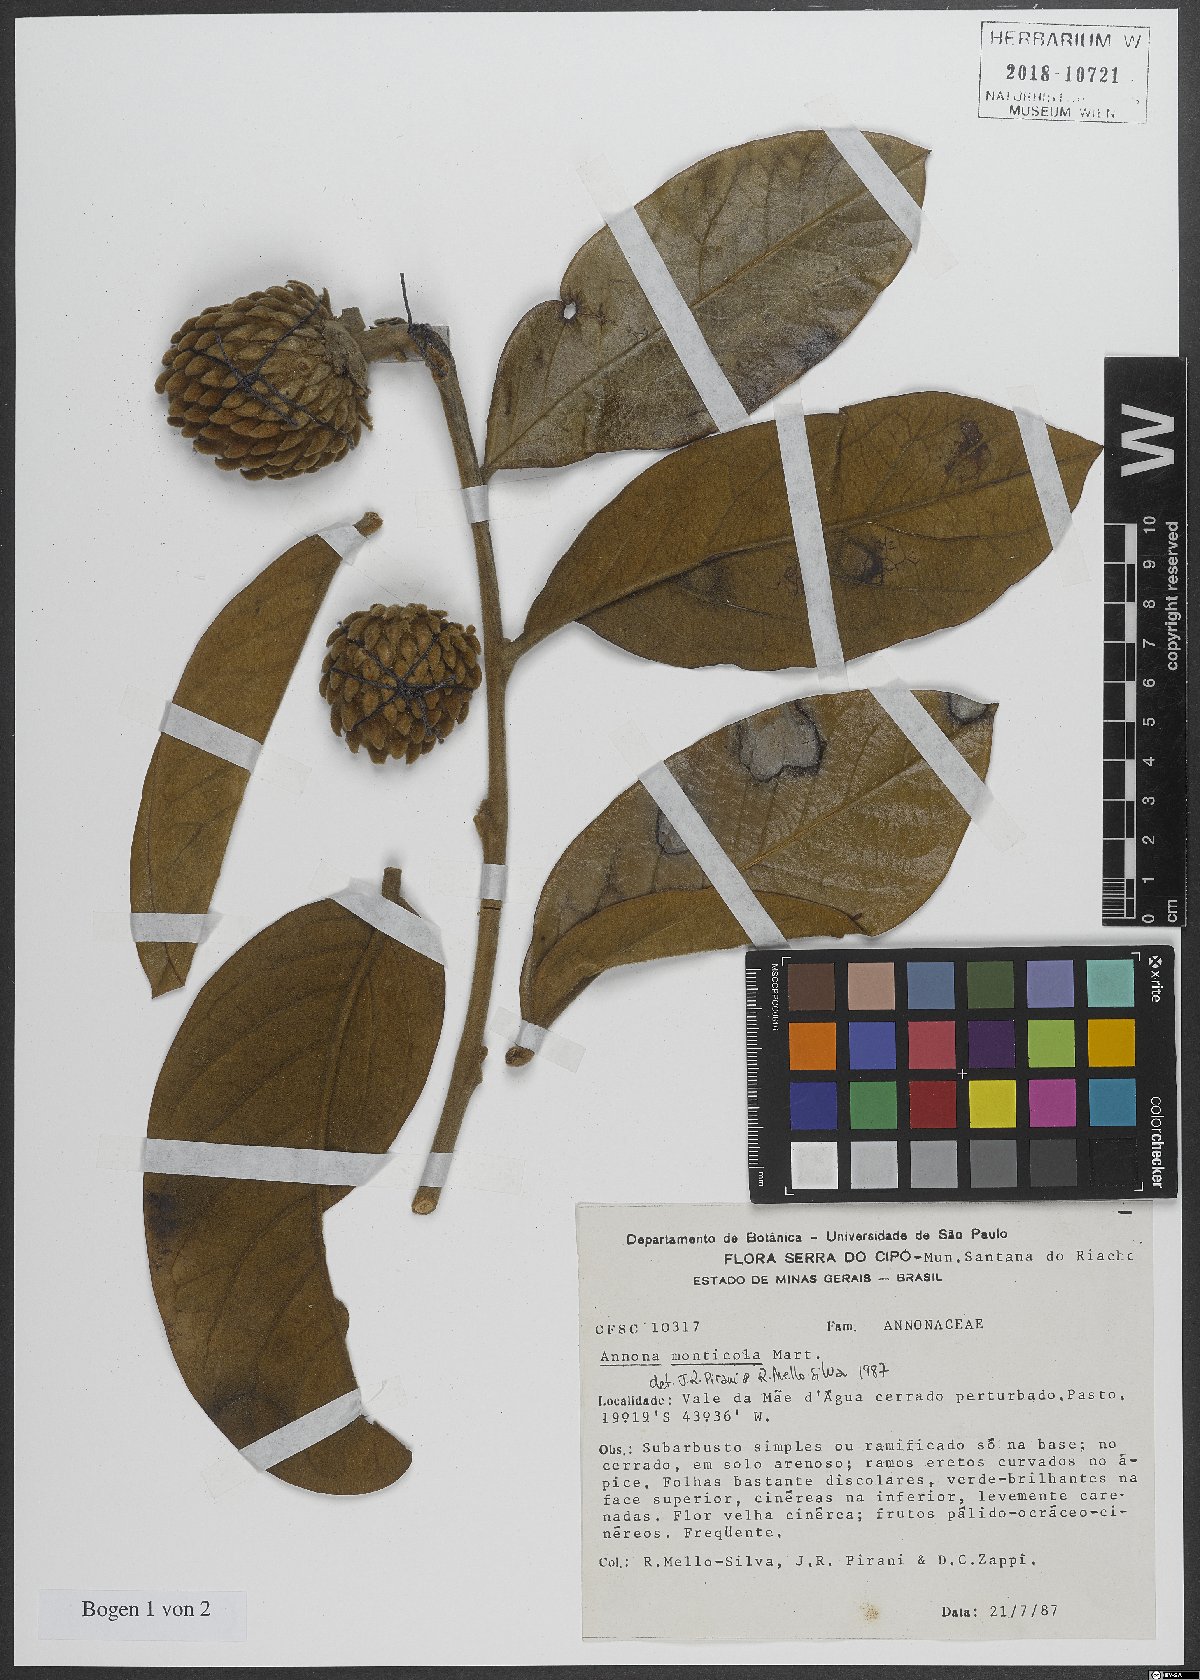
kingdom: Plantae
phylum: Tracheophyta
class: Magnoliopsida
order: Magnoliales
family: Annonaceae
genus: Annona
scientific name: Annona monticola
